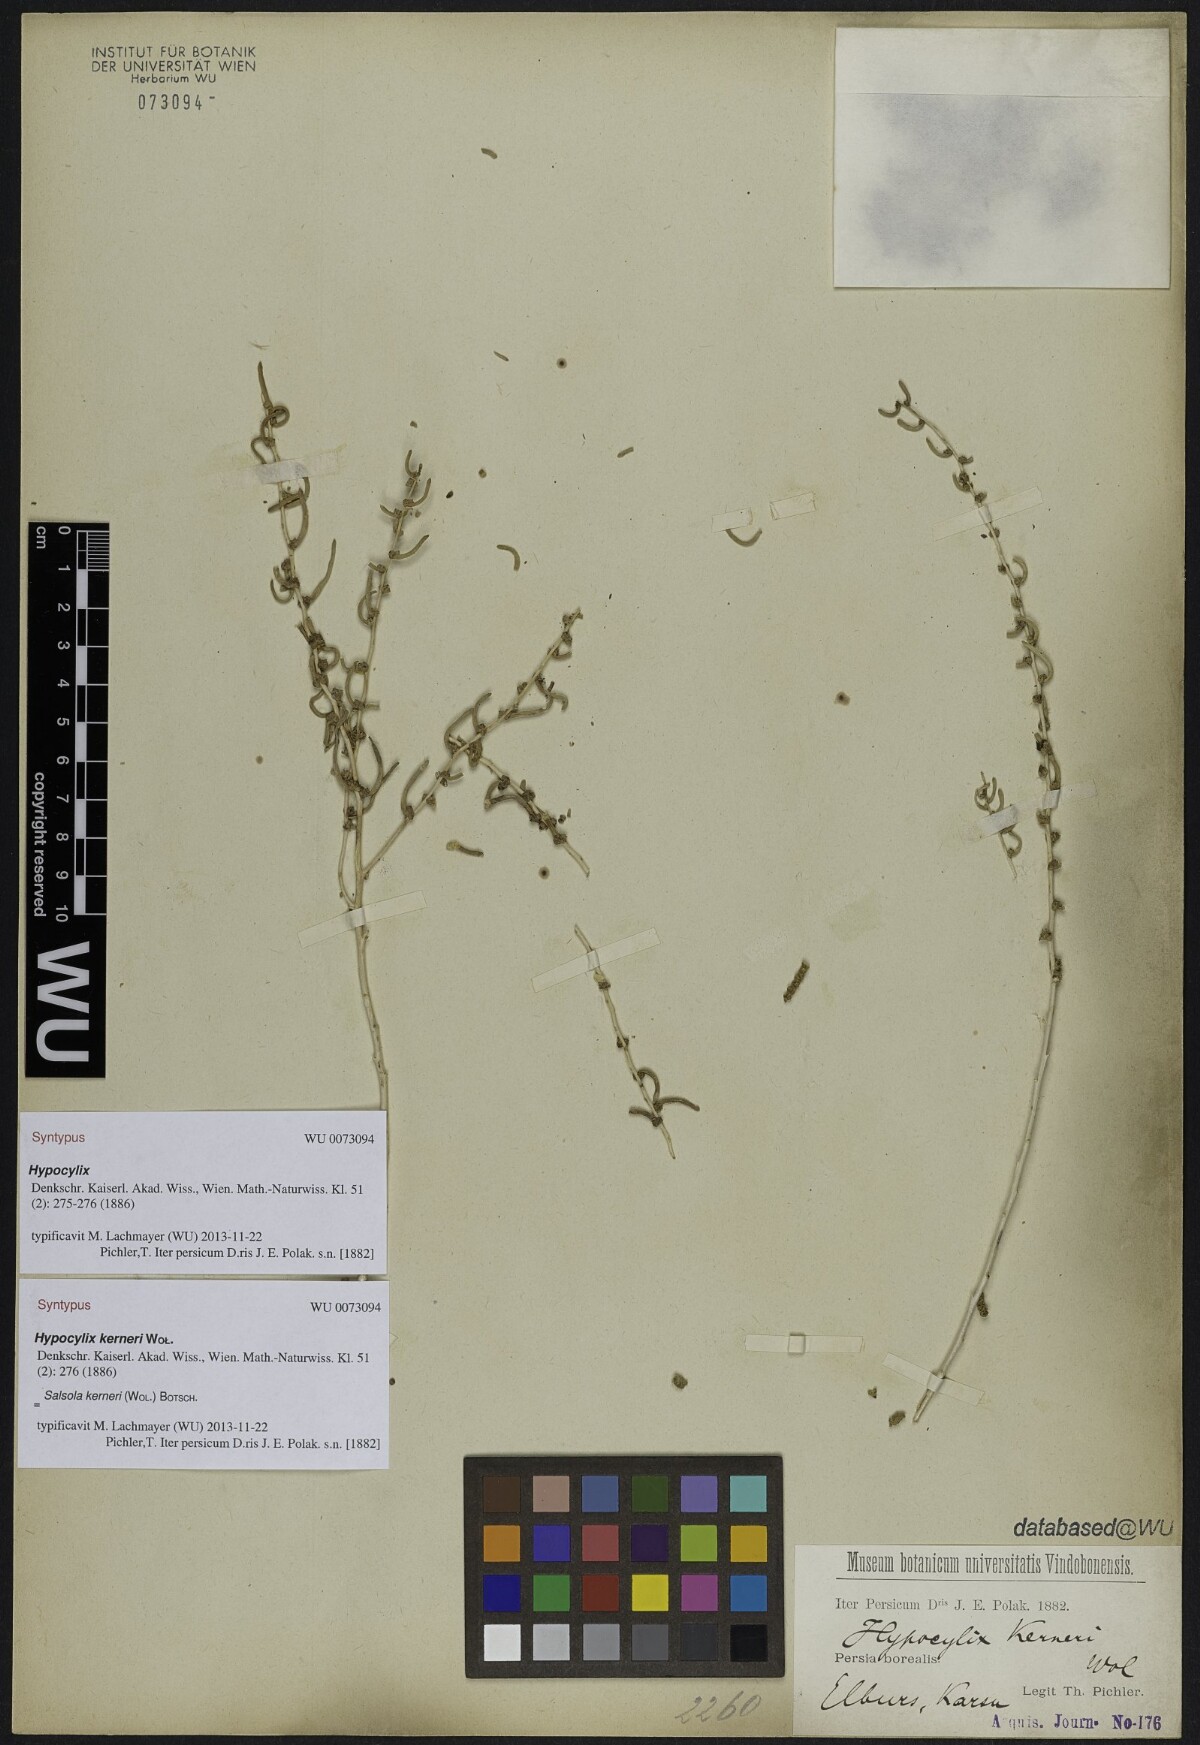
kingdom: Plantae
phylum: Tracheophyta
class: Magnoliopsida
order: Caryophyllales
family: Amaranthaceae
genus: Soda
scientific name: Soda kerneri
